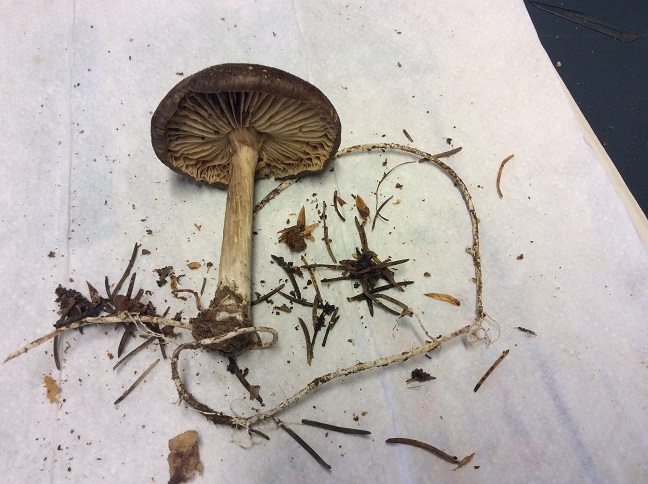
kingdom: Fungi
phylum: Basidiomycota
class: Agaricomycetes
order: Agaricales
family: Tricholomataceae
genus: Megacollybia
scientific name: Megacollybia platyphylla
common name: bredbladet væbnerhat
